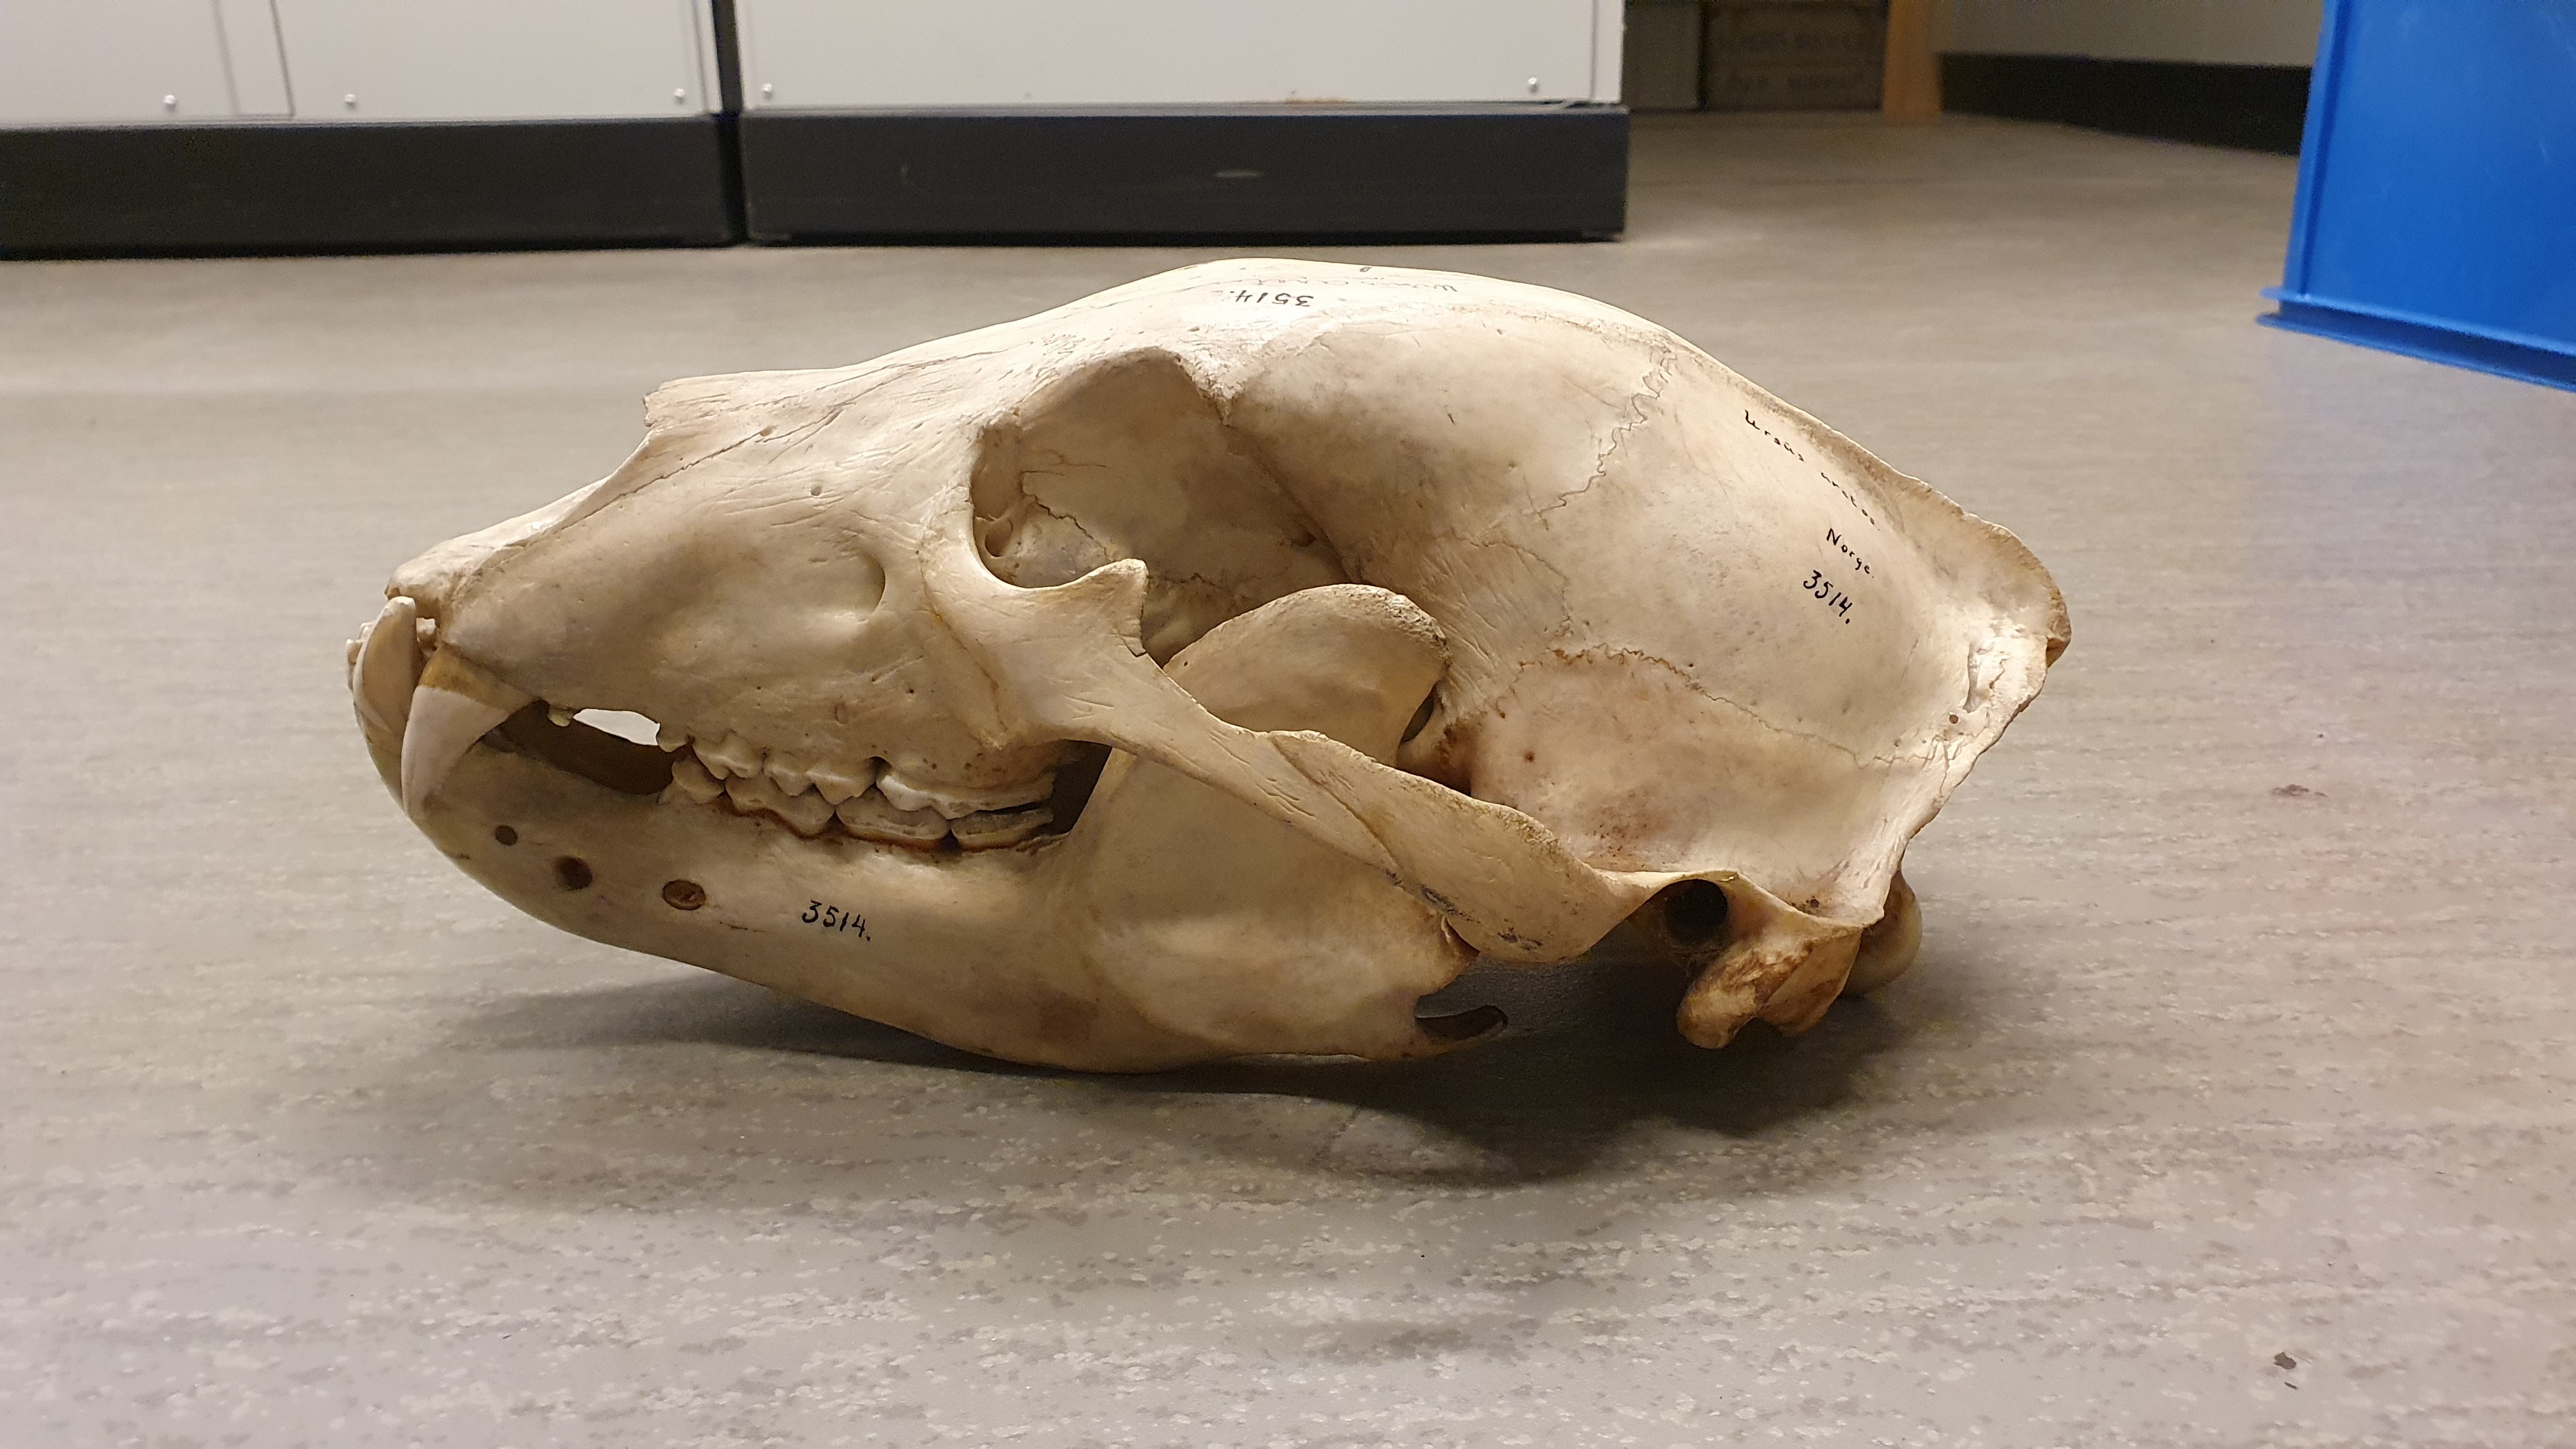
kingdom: Animalia
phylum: Chordata
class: Mammalia
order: Carnivora
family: Ursidae
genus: Ursus
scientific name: Ursus arctos
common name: Brown bear
